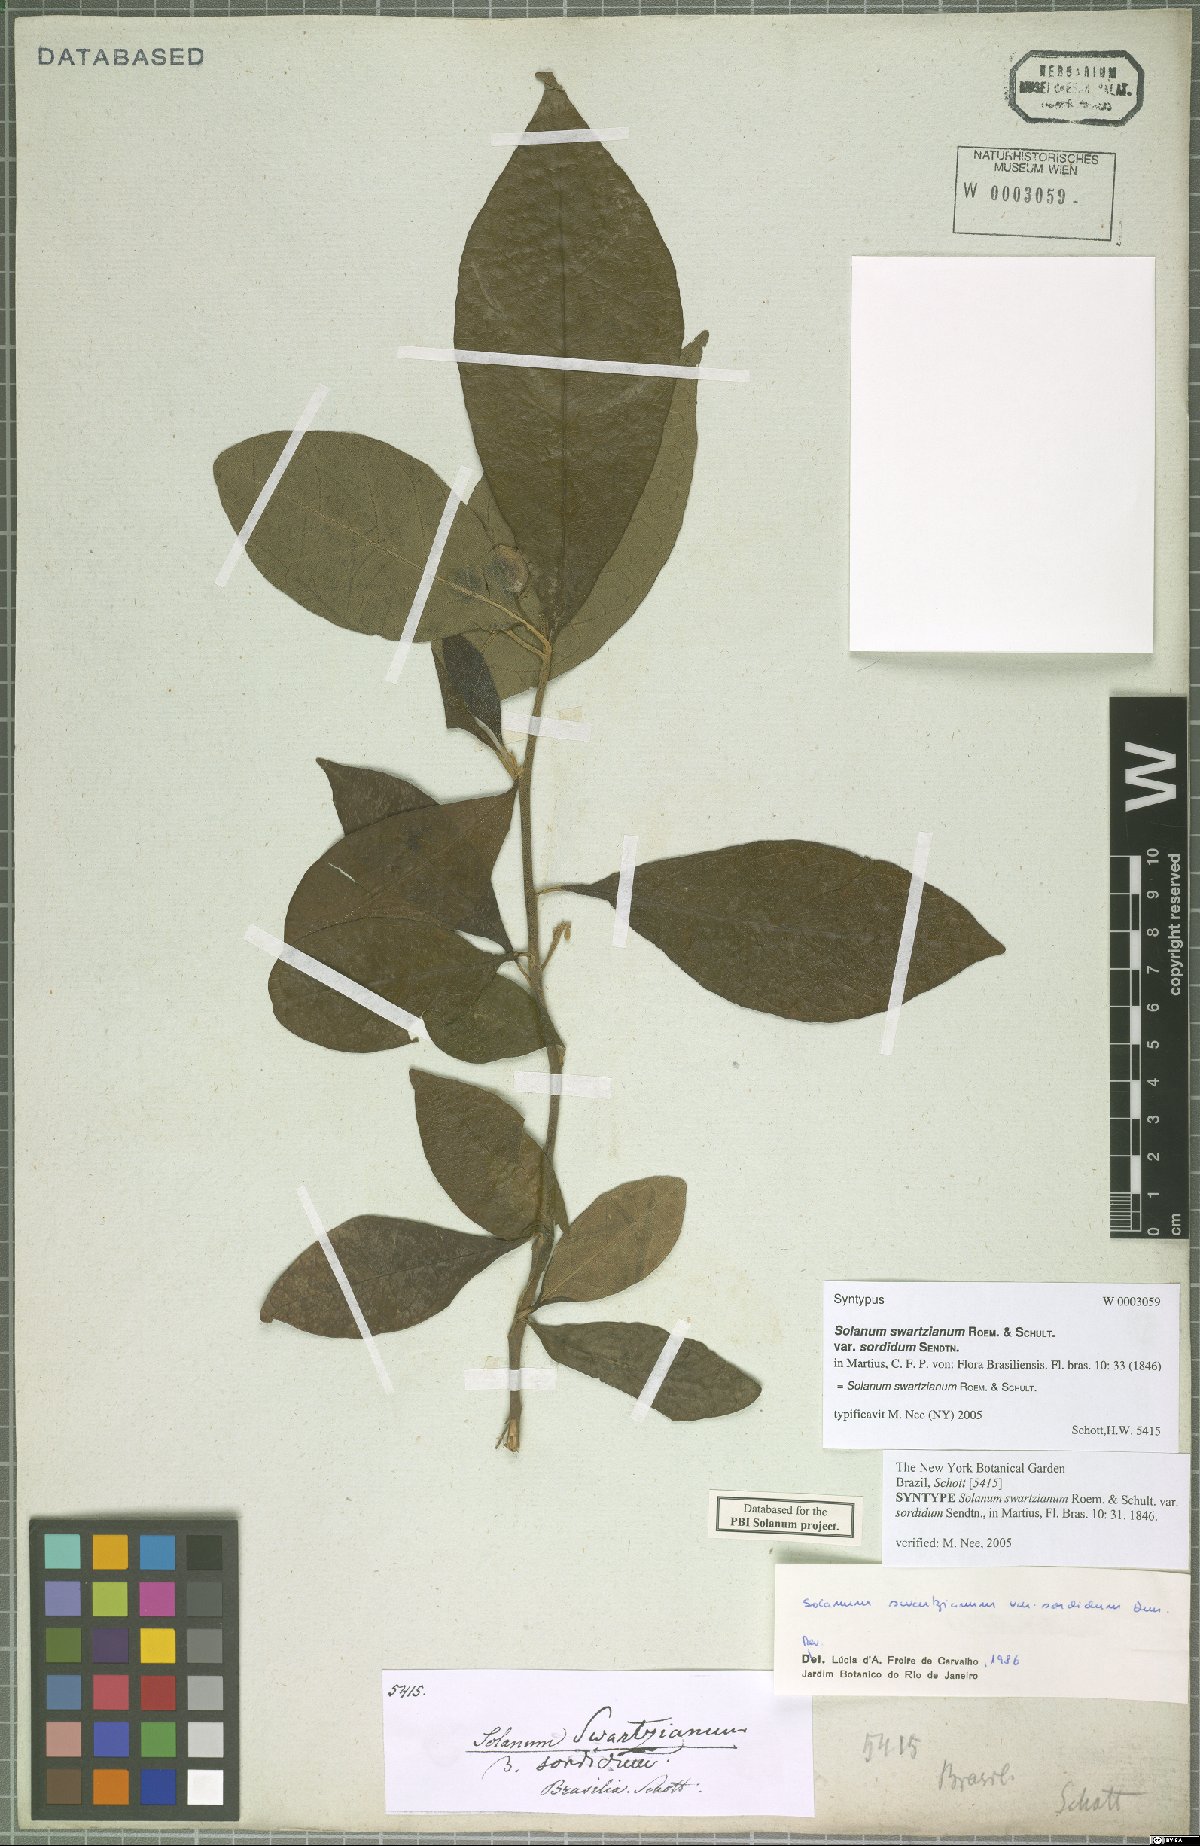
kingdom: Plantae
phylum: Tracheophyta
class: Magnoliopsida
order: Solanales
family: Solanaceae
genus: Solanum
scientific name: Solanum swartzianum
